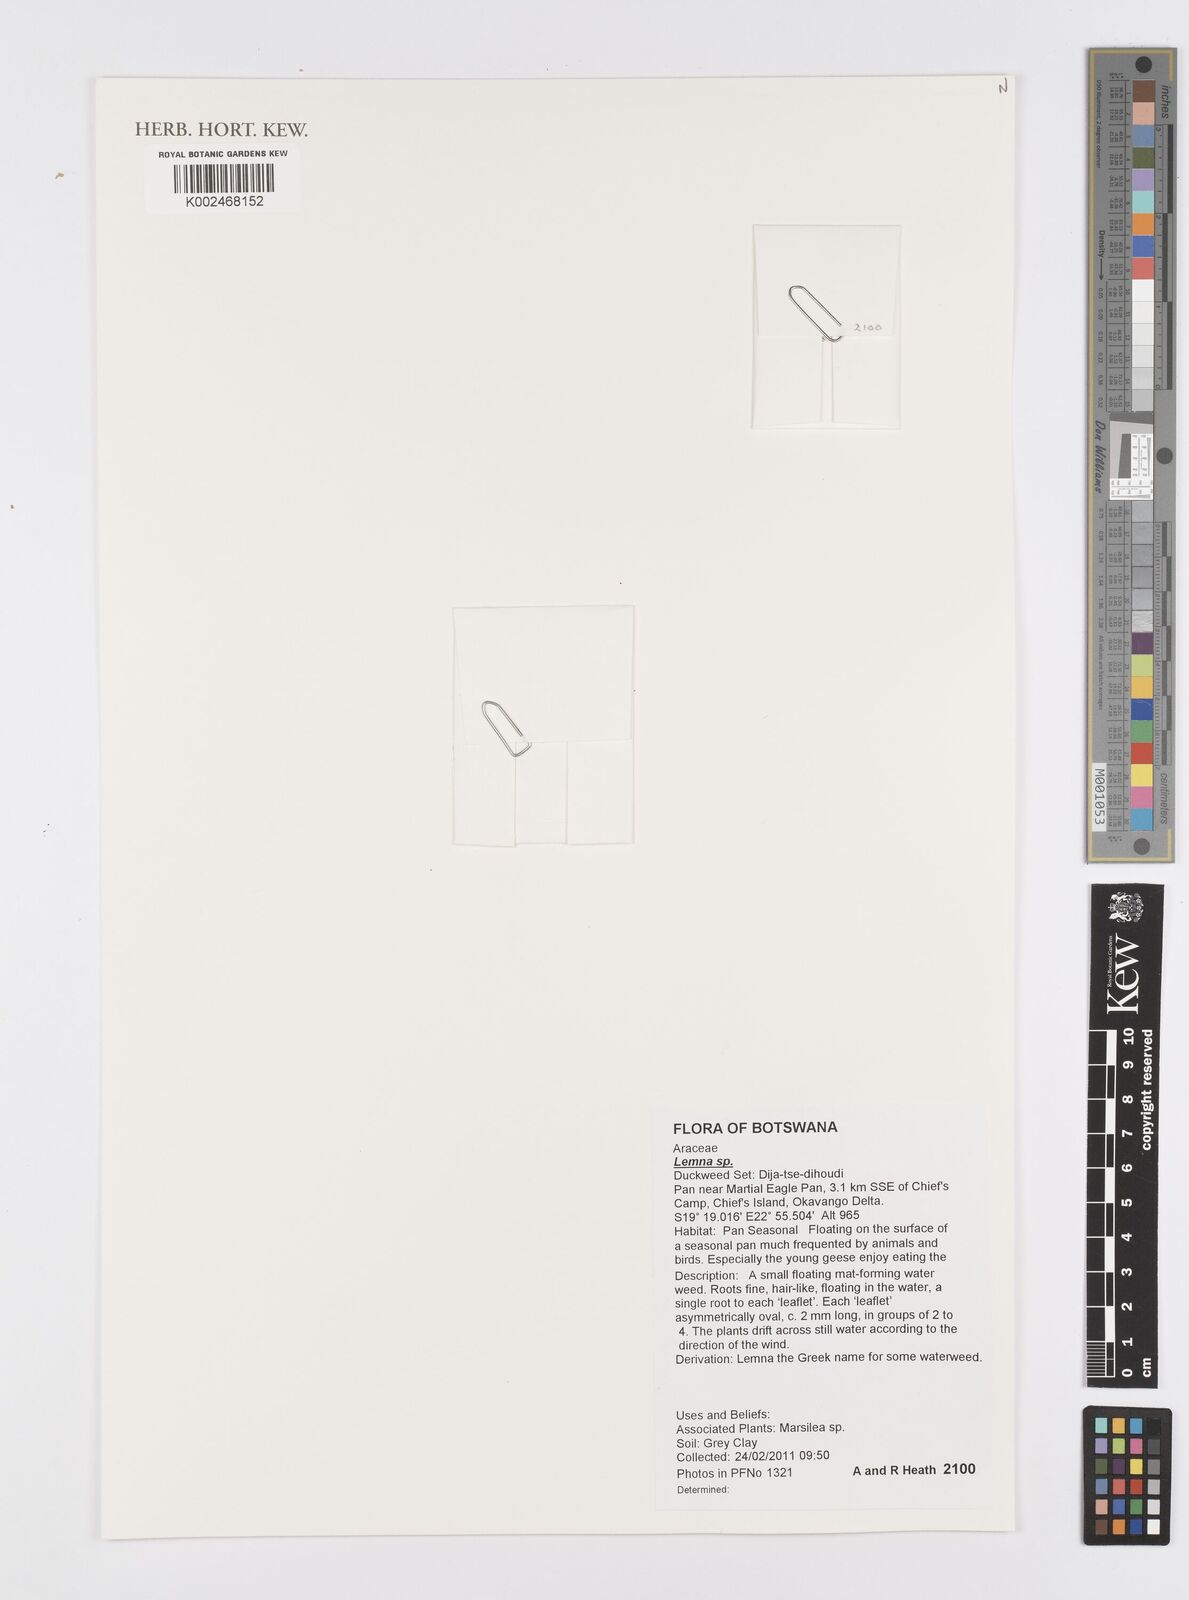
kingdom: Plantae
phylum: Tracheophyta
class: Liliopsida
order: Alismatales
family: Araceae
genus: Lemna
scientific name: Lemna aequinoctialis
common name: Duckweed
